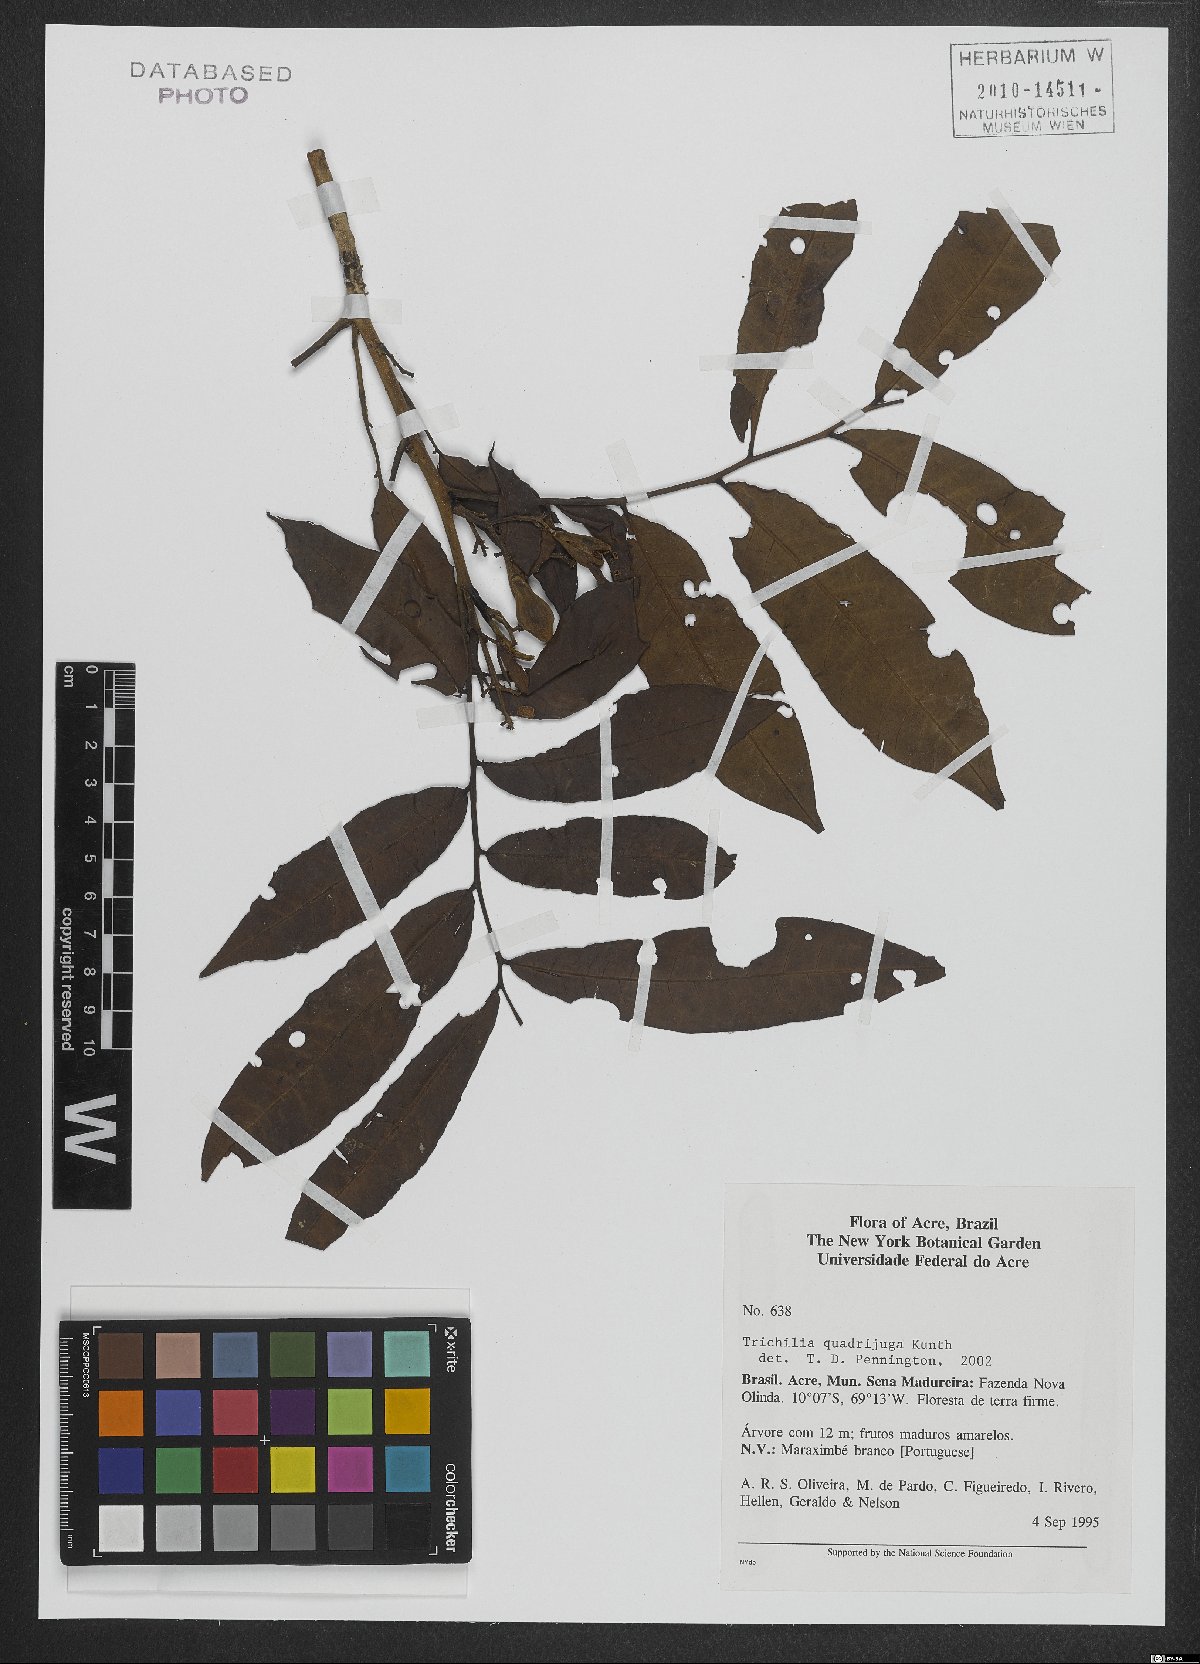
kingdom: Plantae
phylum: Tracheophyta
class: Magnoliopsida
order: Sapindales
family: Meliaceae
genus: Trichilia
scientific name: Trichilia quadrijuga
